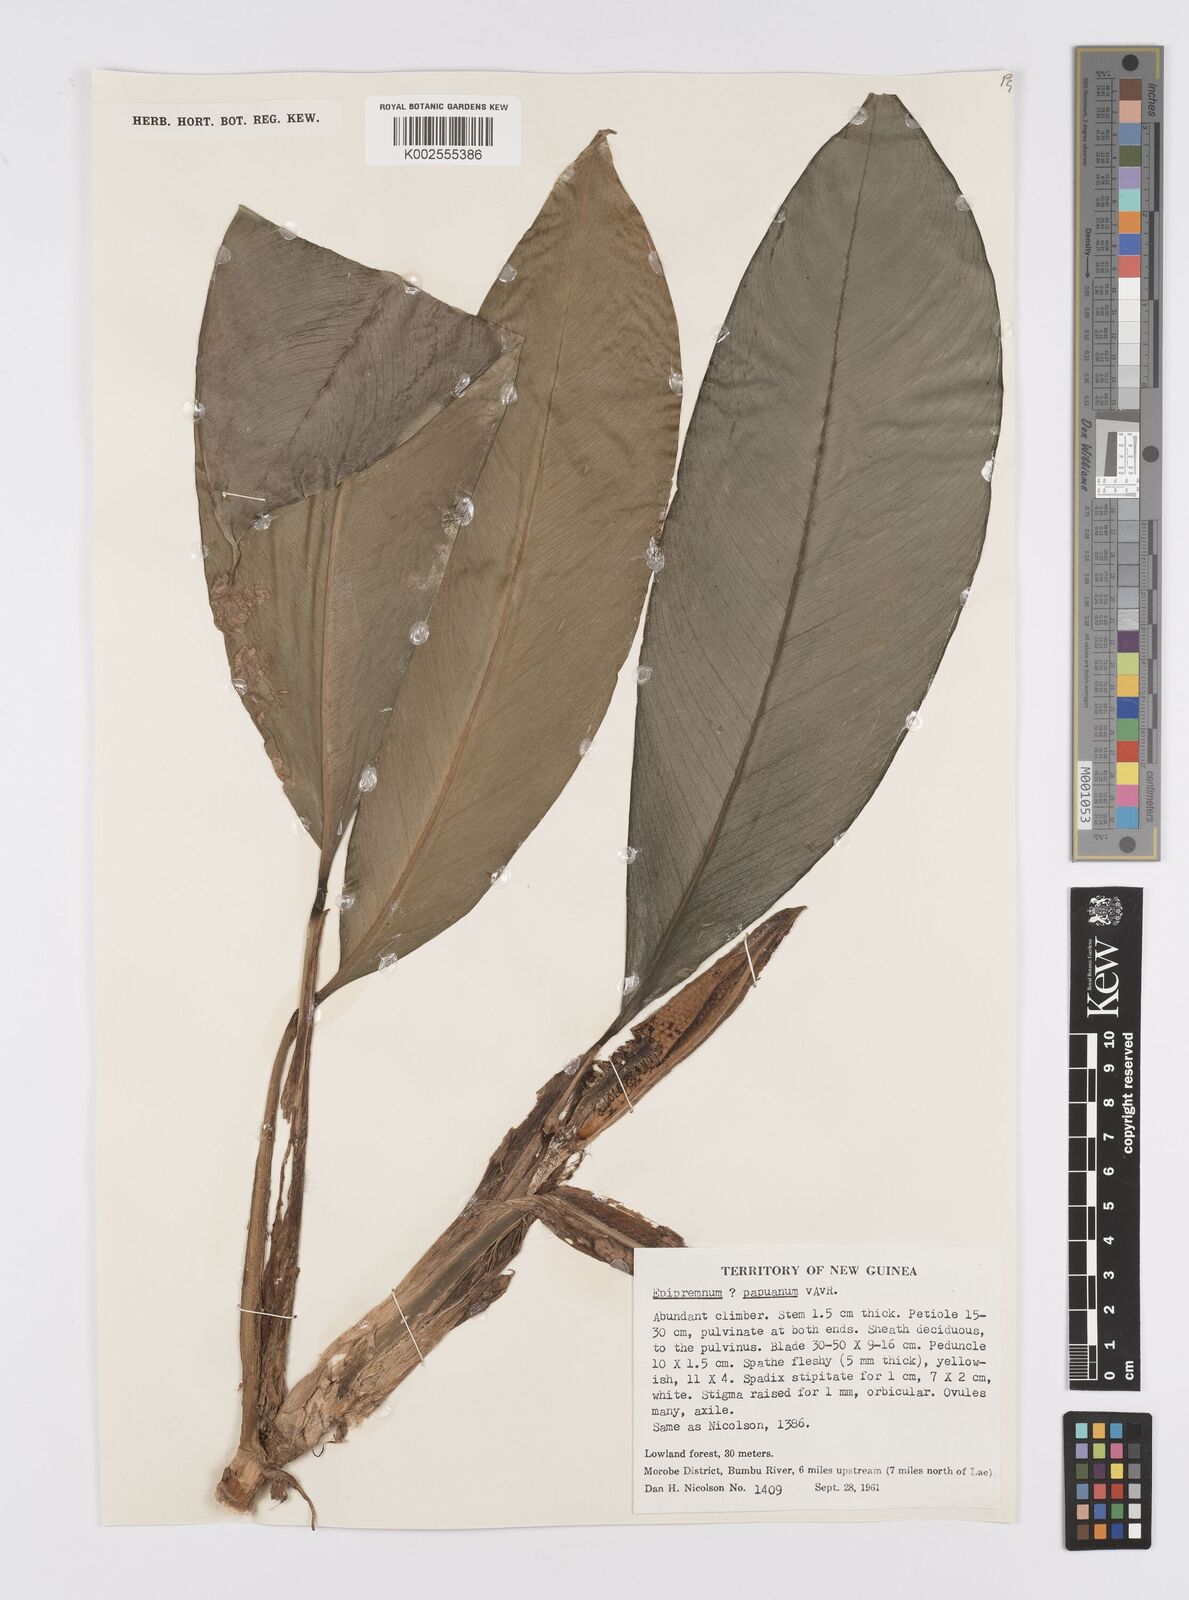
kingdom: Plantae
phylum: Tracheophyta
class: Liliopsida
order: Alismatales
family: Araceae
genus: Epipremnum
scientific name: Epipremnum papuanum
